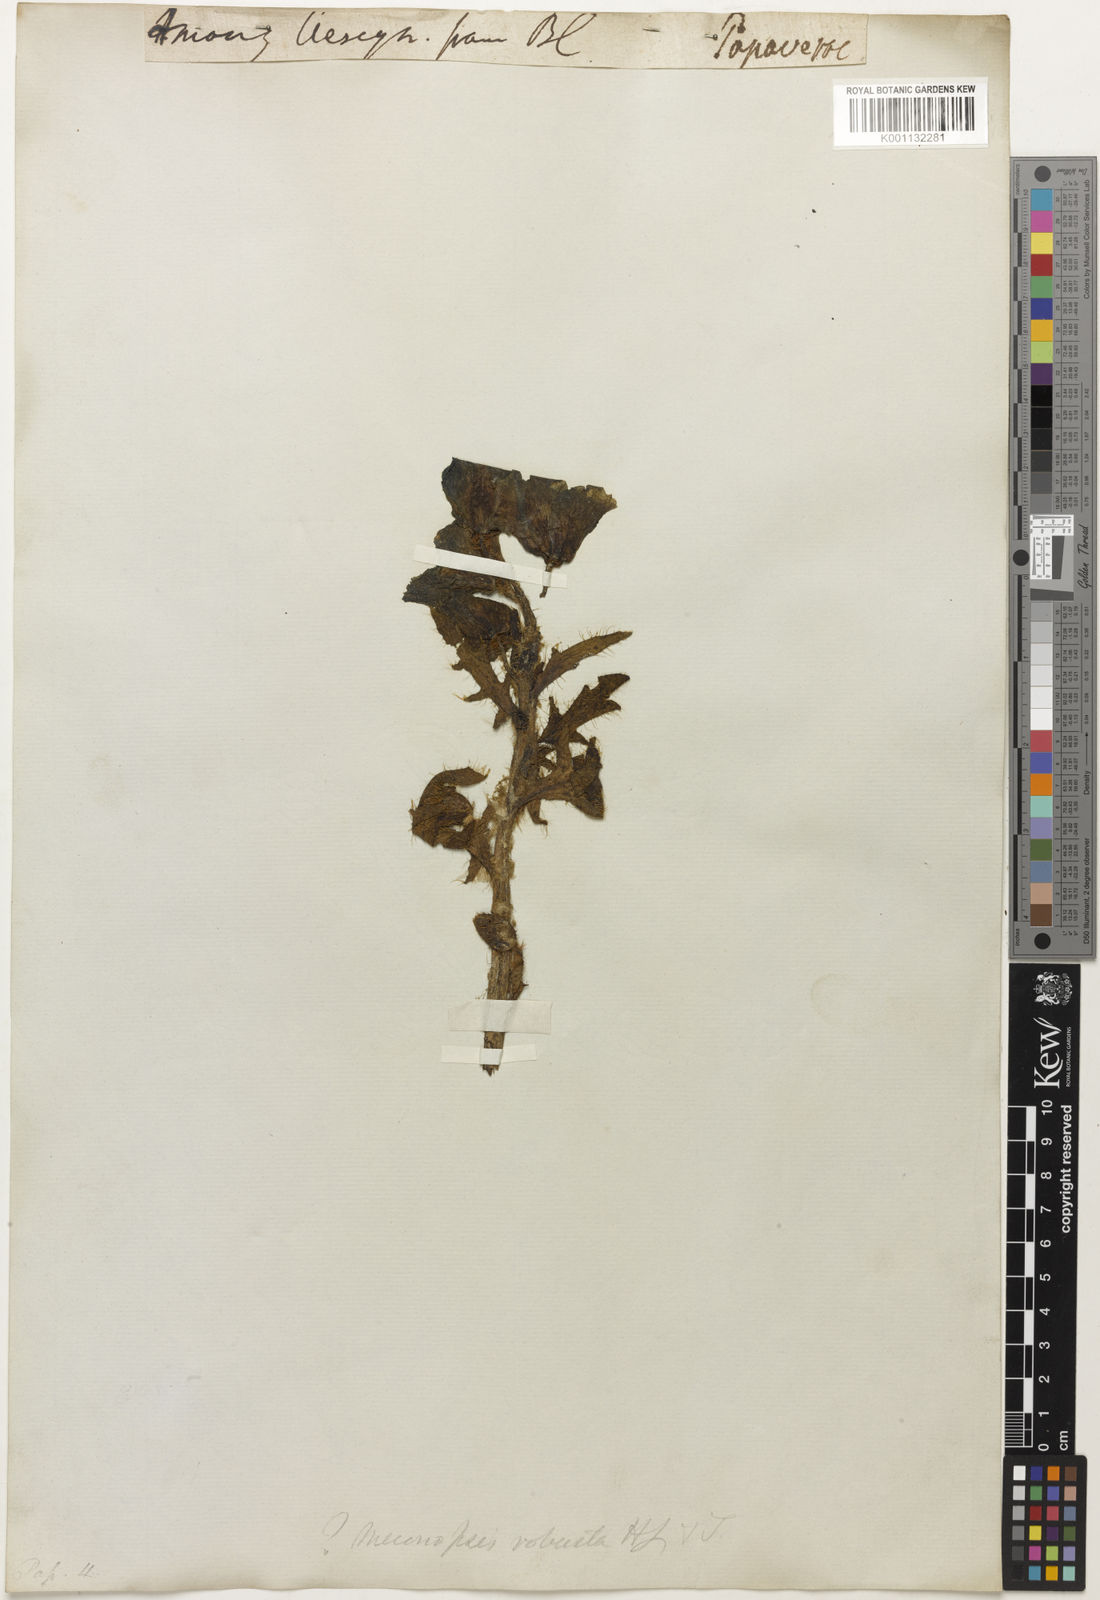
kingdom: Plantae
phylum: Tracheophyta
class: Magnoliopsida
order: Ranunculales
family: Papaveraceae
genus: Meconopsis
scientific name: Meconopsis
